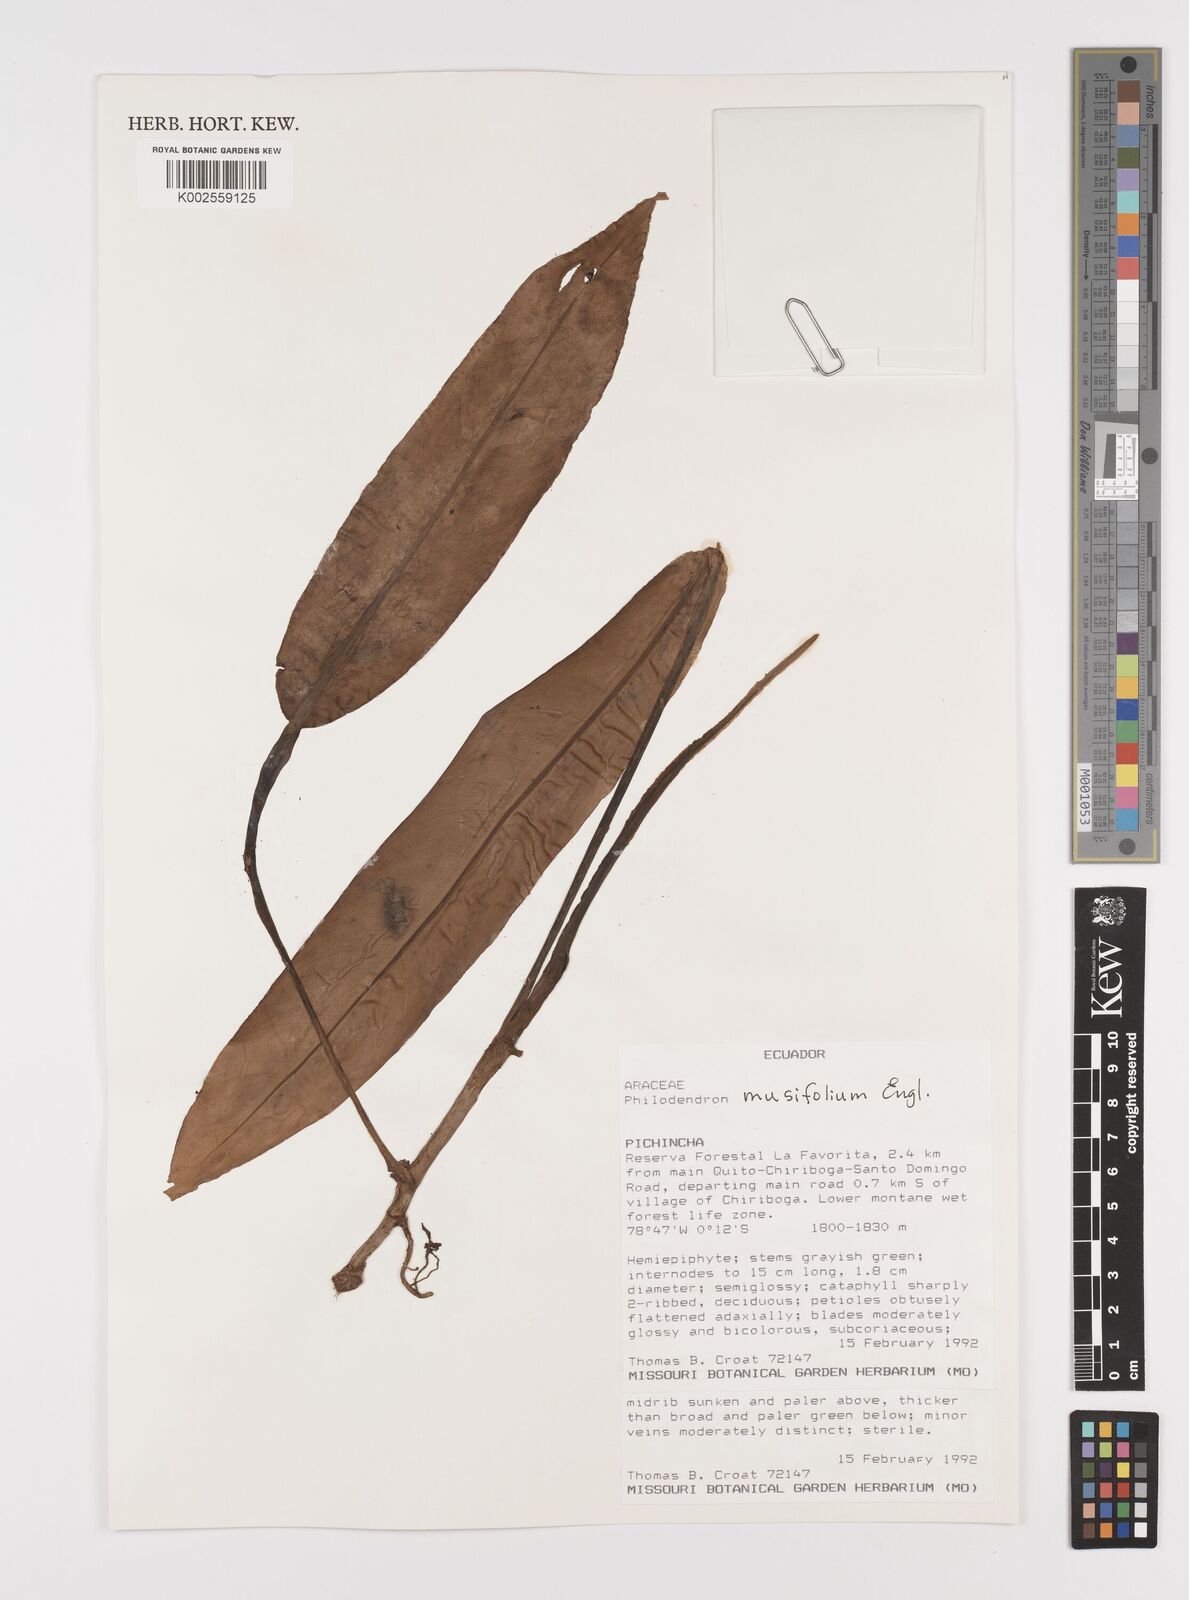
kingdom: Plantae
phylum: Tracheophyta
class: Liliopsida
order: Alismatales
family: Araceae
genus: Philodendron
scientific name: Philodendron musifolium
